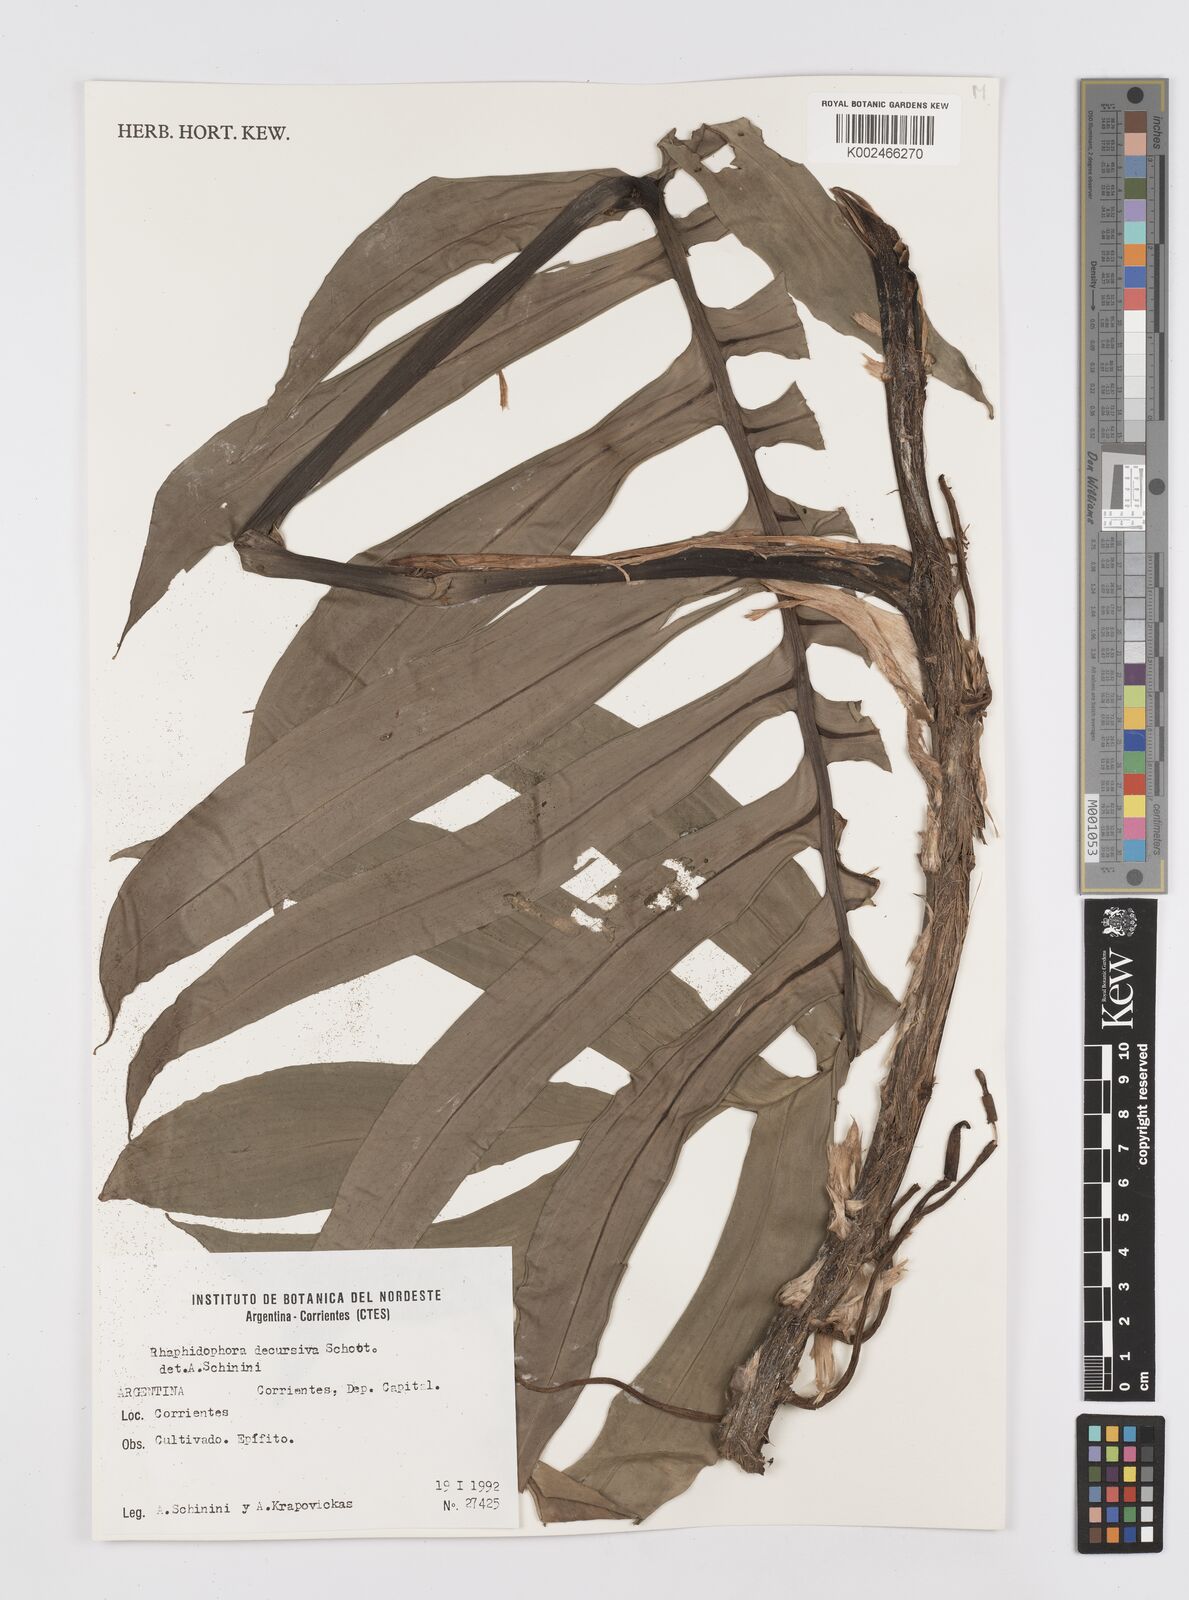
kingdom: Plantae
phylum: Tracheophyta
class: Liliopsida
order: Alismatales
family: Araceae
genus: Rhaphidophora
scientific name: Rhaphidophora decursiva
